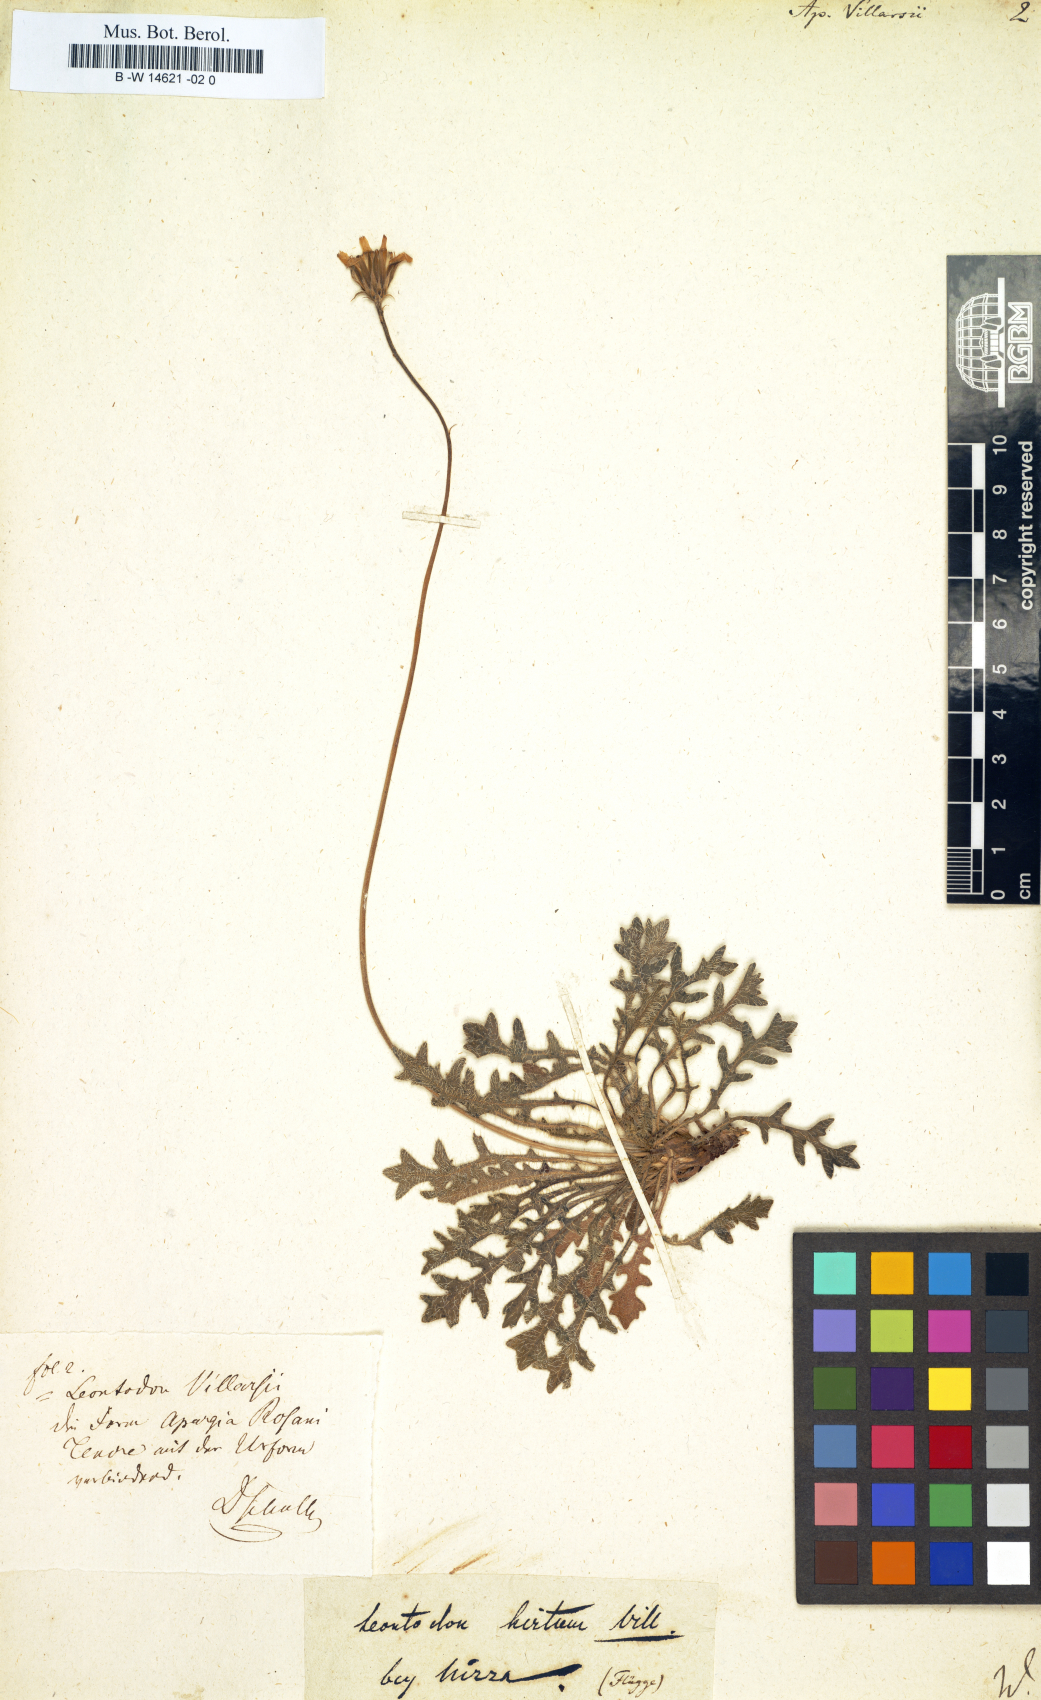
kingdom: Plantae
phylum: Tracheophyta
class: Magnoliopsida
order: Asterales
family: Asteraceae
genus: Leontodon
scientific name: Leontodon hirtus
